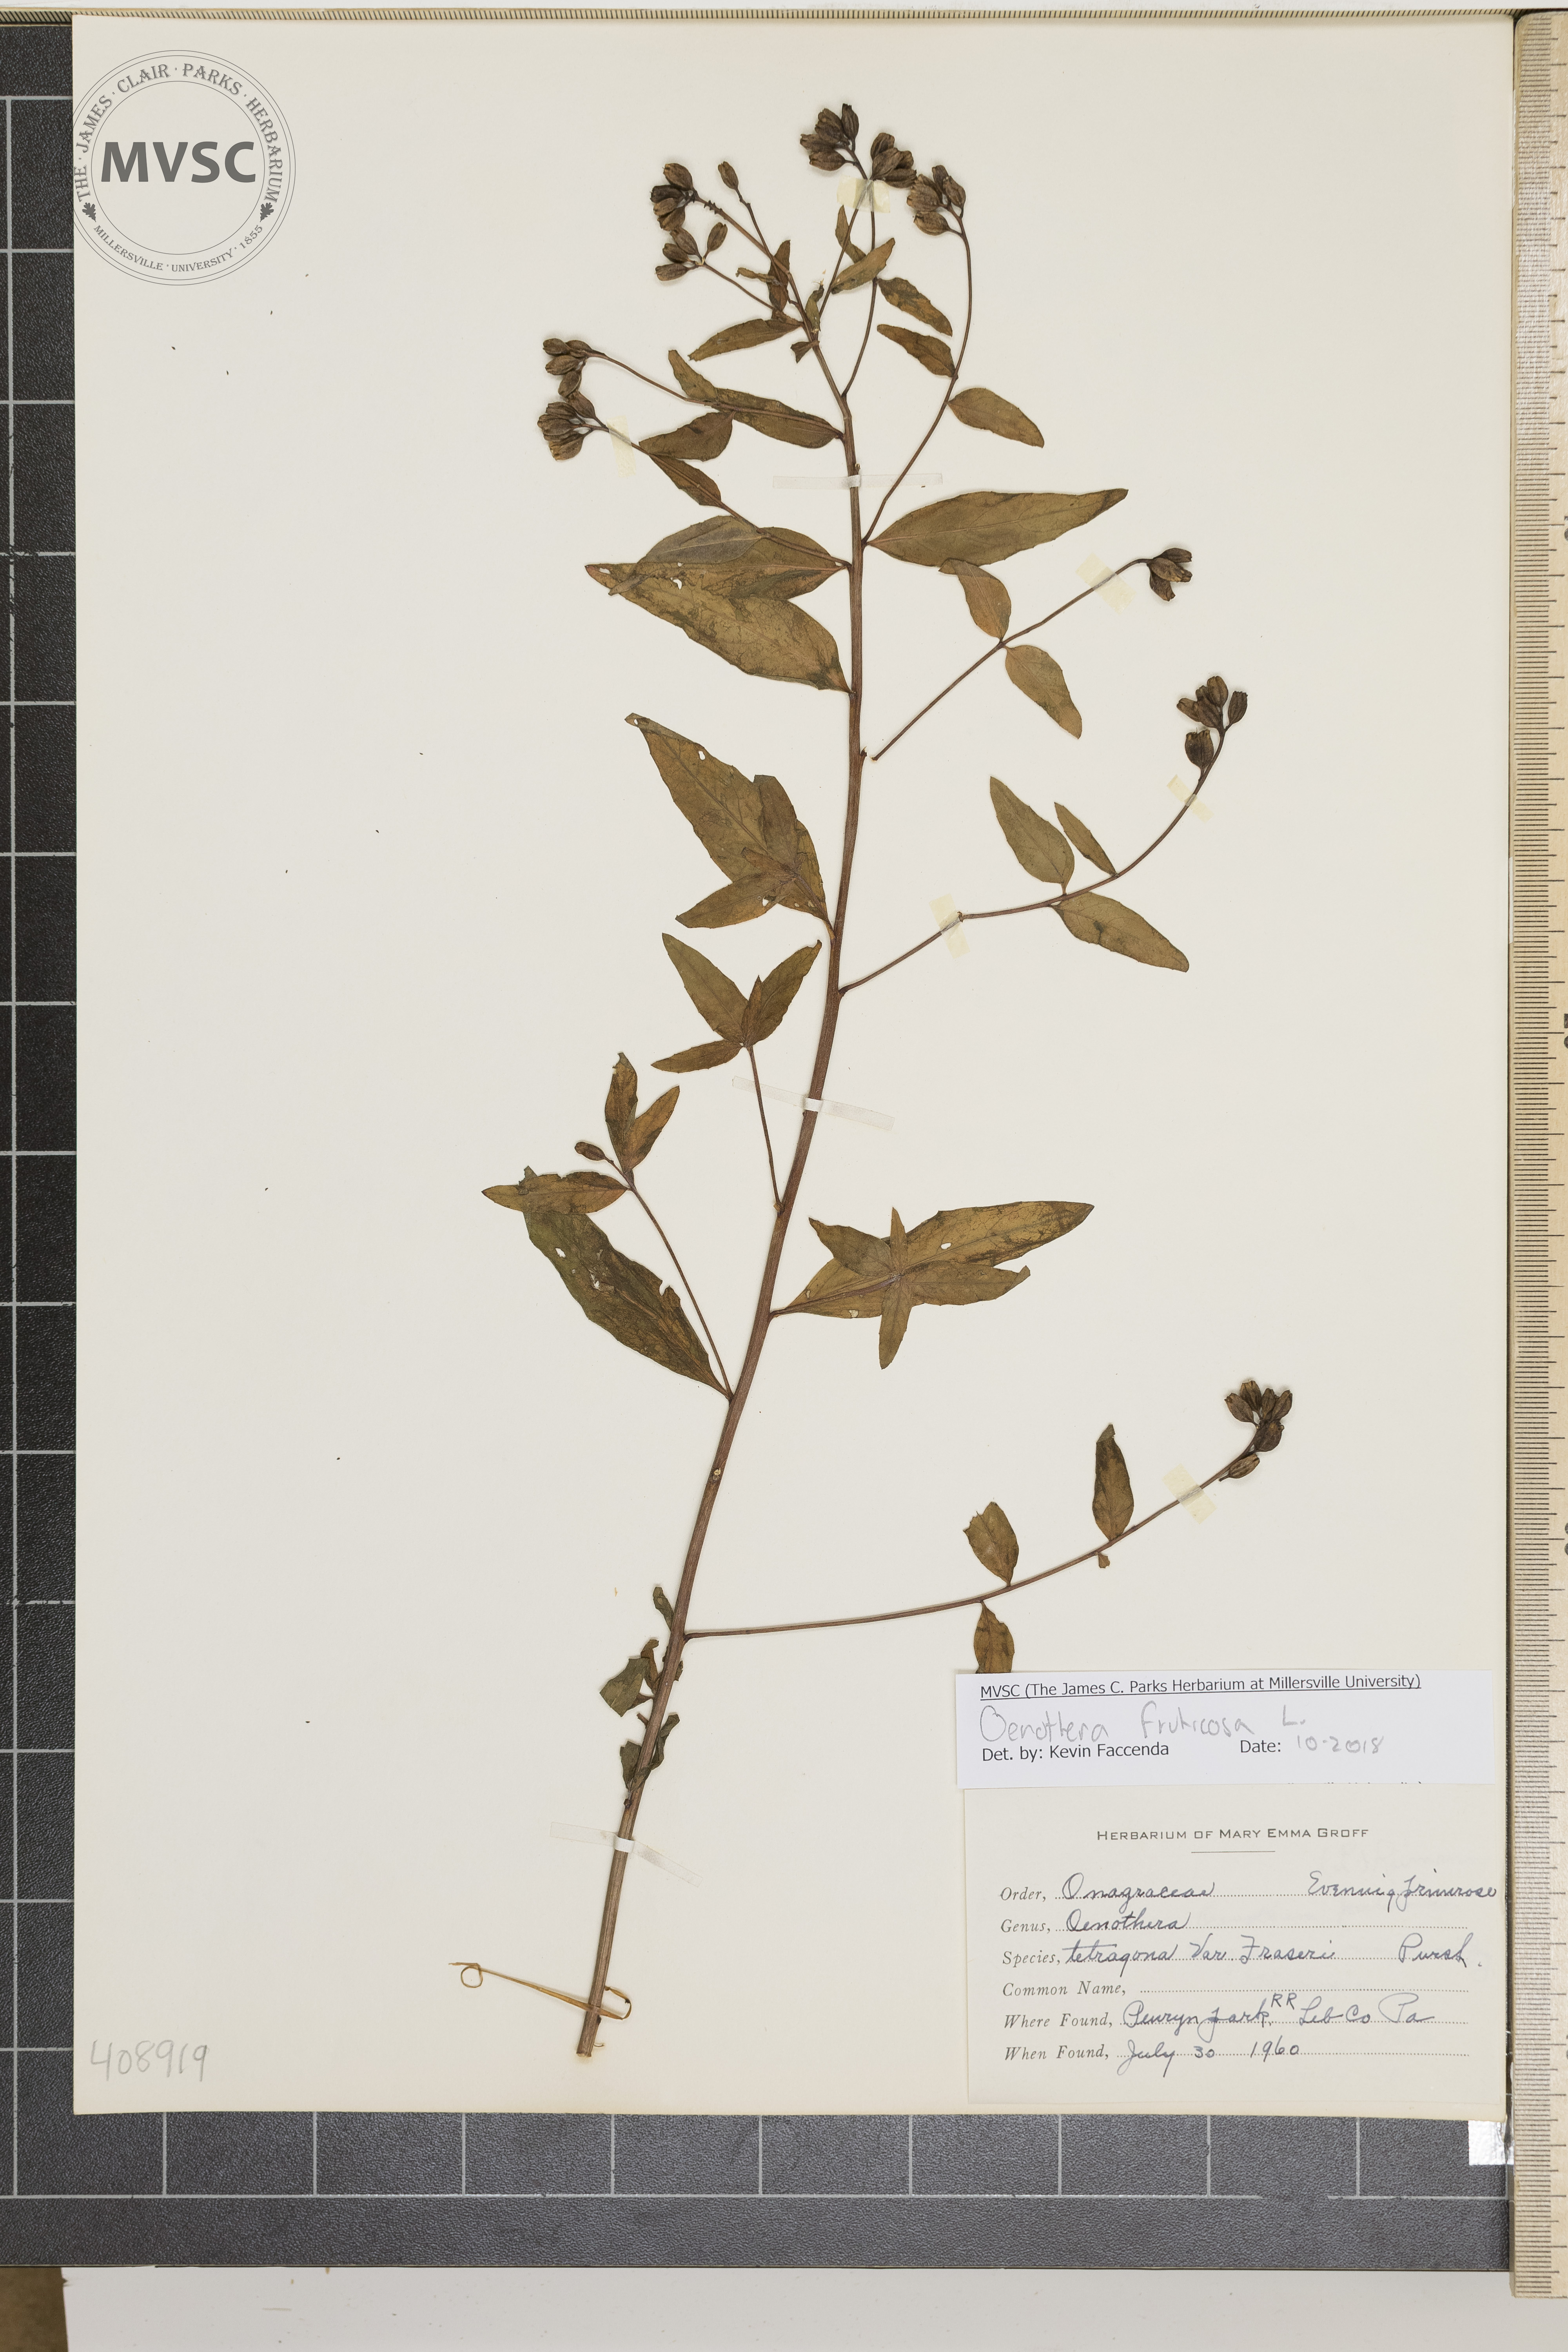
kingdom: Plantae
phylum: Tracheophyta
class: Magnoliopsida
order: Myrtales
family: Onagraceae
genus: Oenothera
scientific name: Oenothera fruticosa
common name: Southern sundrops
